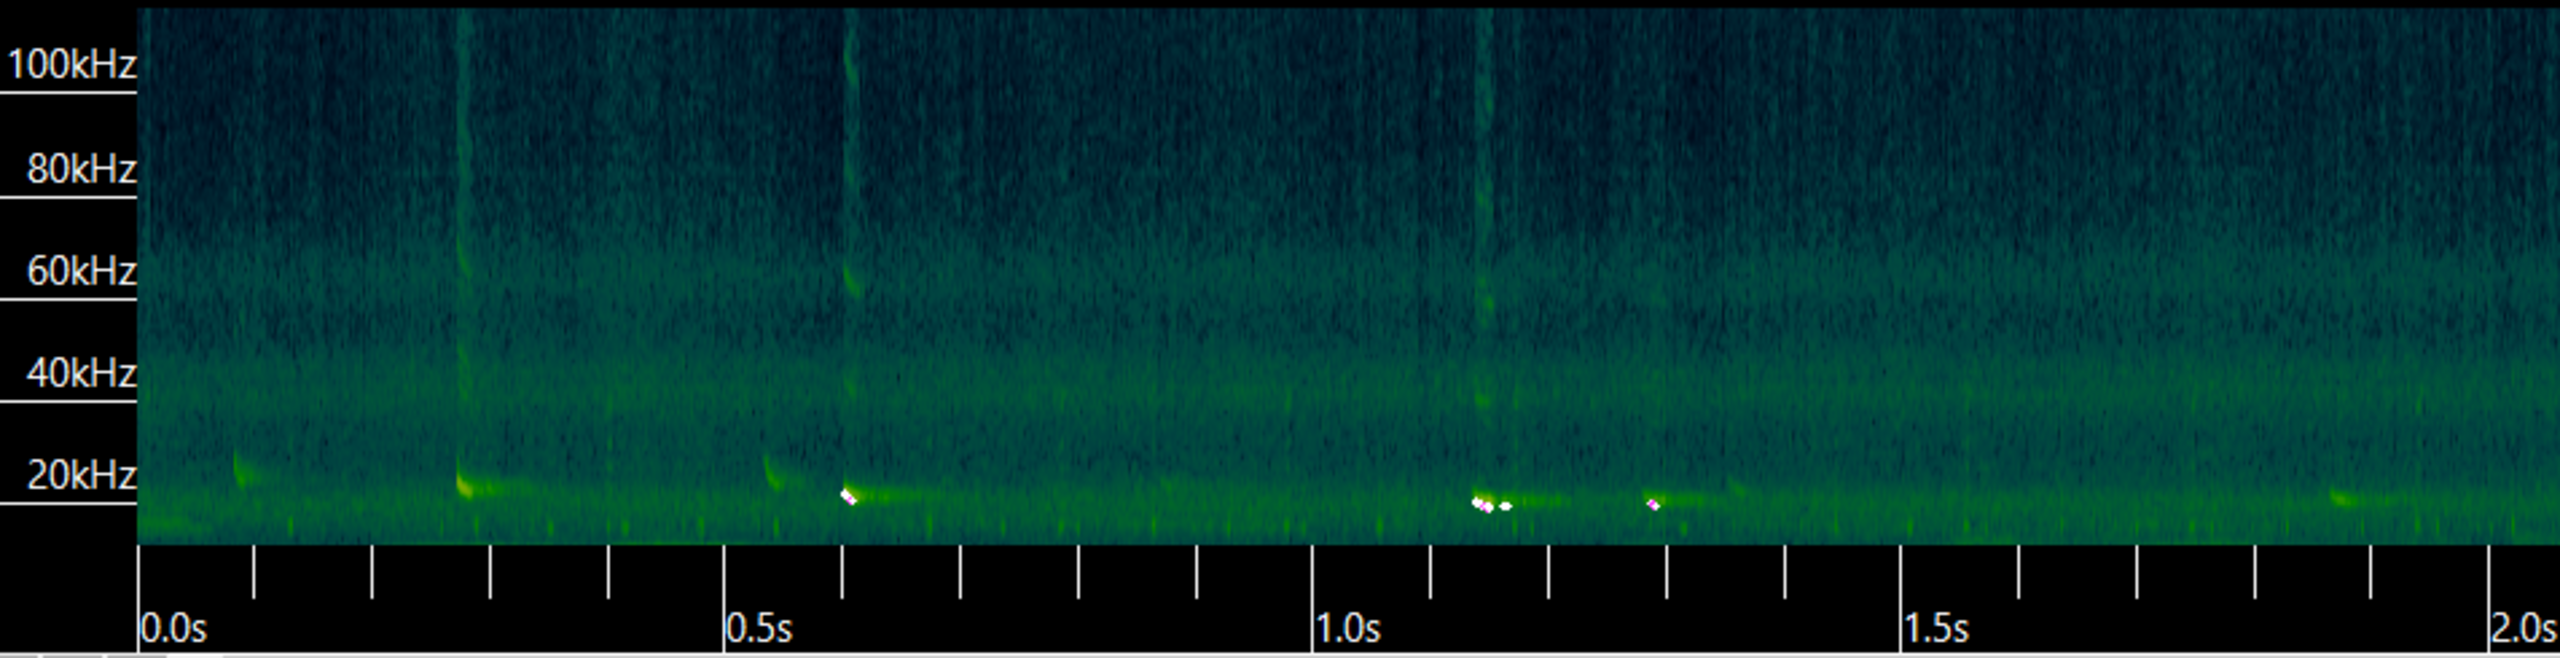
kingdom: Animalia
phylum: Chordata
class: Mammalia
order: Chiroptera
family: Vespertilionidae
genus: Nyctalus
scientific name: Nyctalus noctula
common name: Brunflagermus
